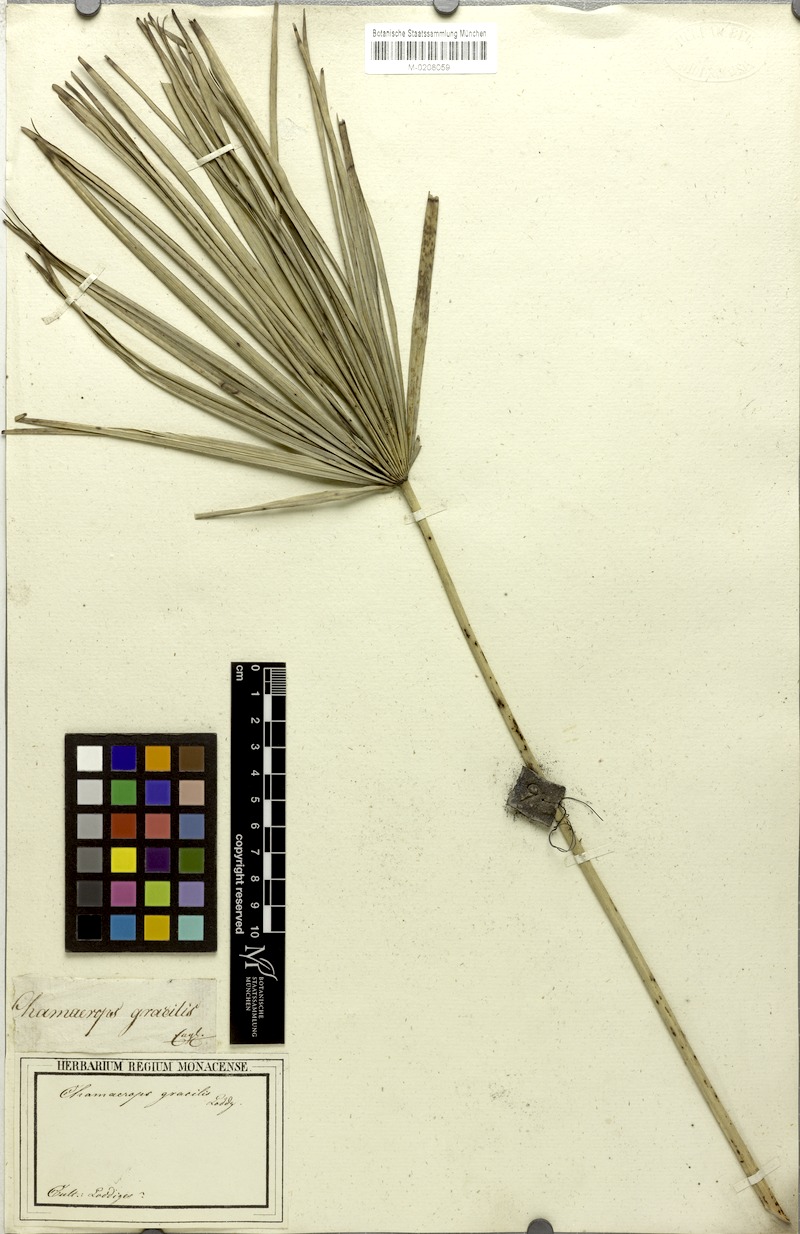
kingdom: Plantae
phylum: Tracheophyta
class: Liliopsida
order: Arecales
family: Arecaceae
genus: Chamaerops
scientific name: Chamaerops humilis
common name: Dwarf fan palm
